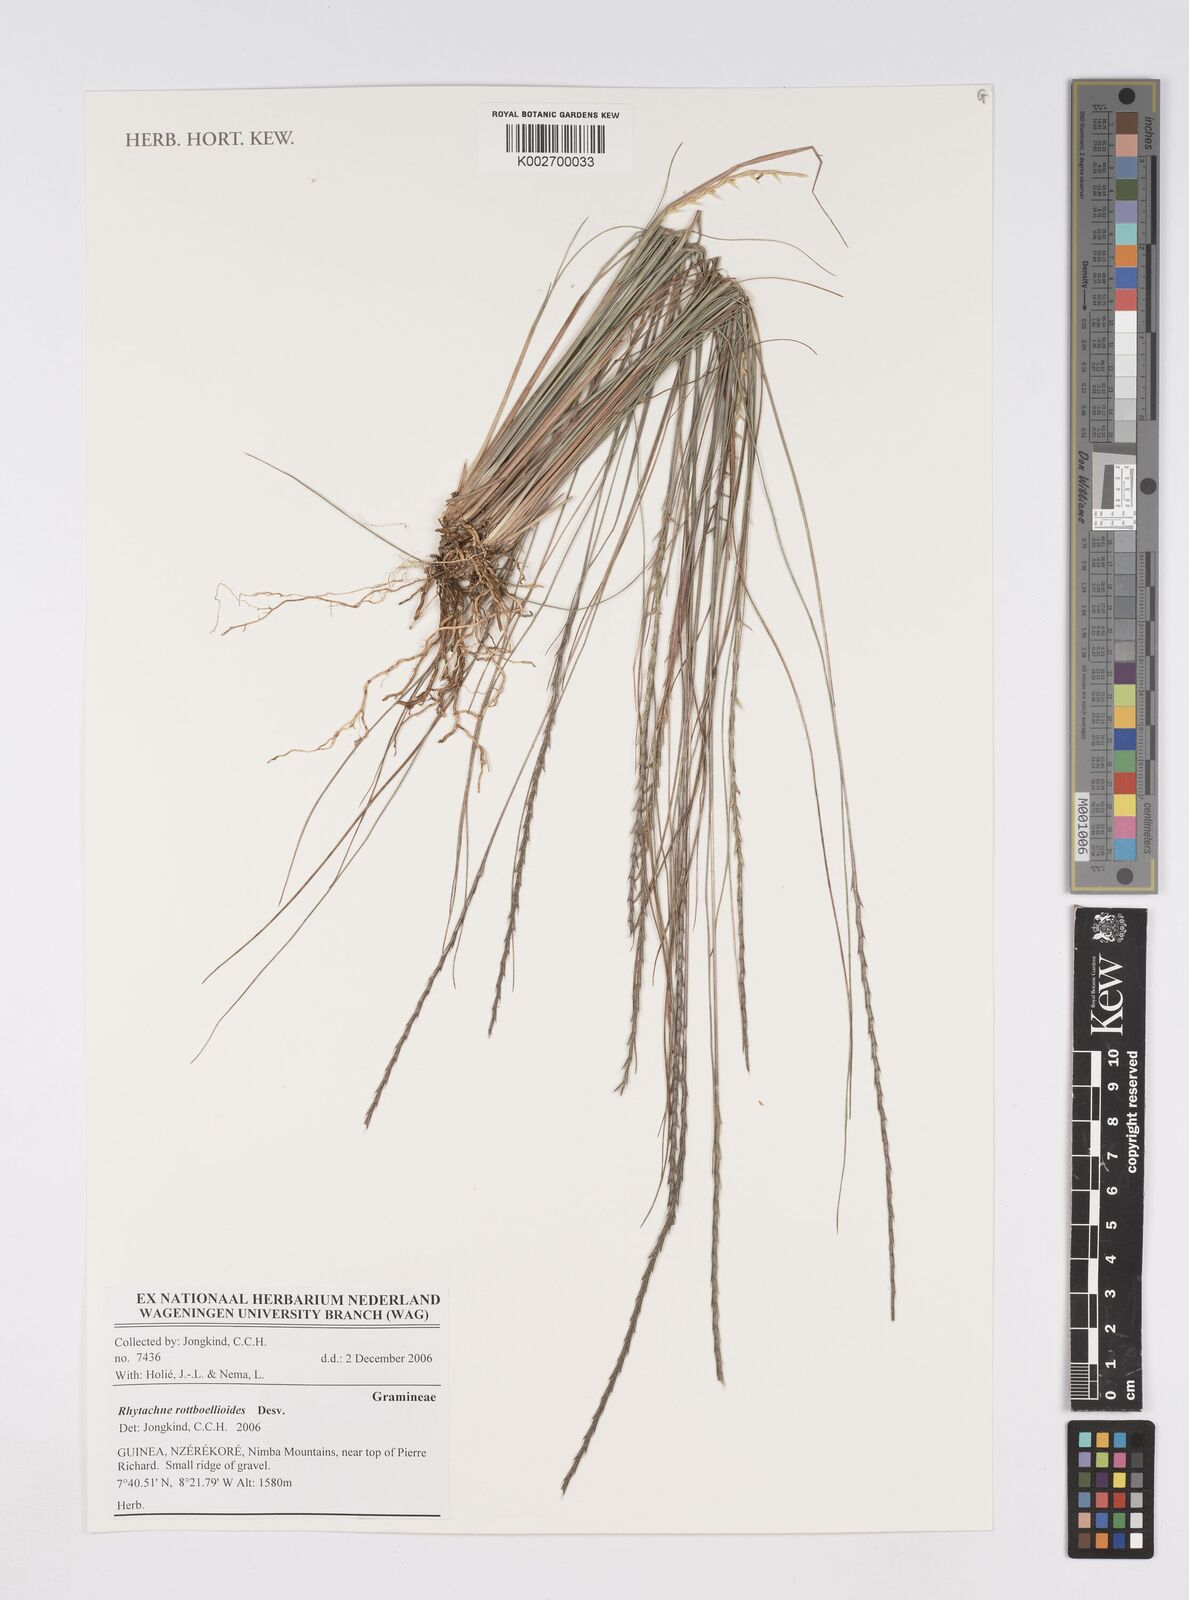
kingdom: Plantae
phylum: Tracheophyta
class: Liliopsida
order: Poales
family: Poaceae
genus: Rhytachne
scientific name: Rhytachne rottboellioides
